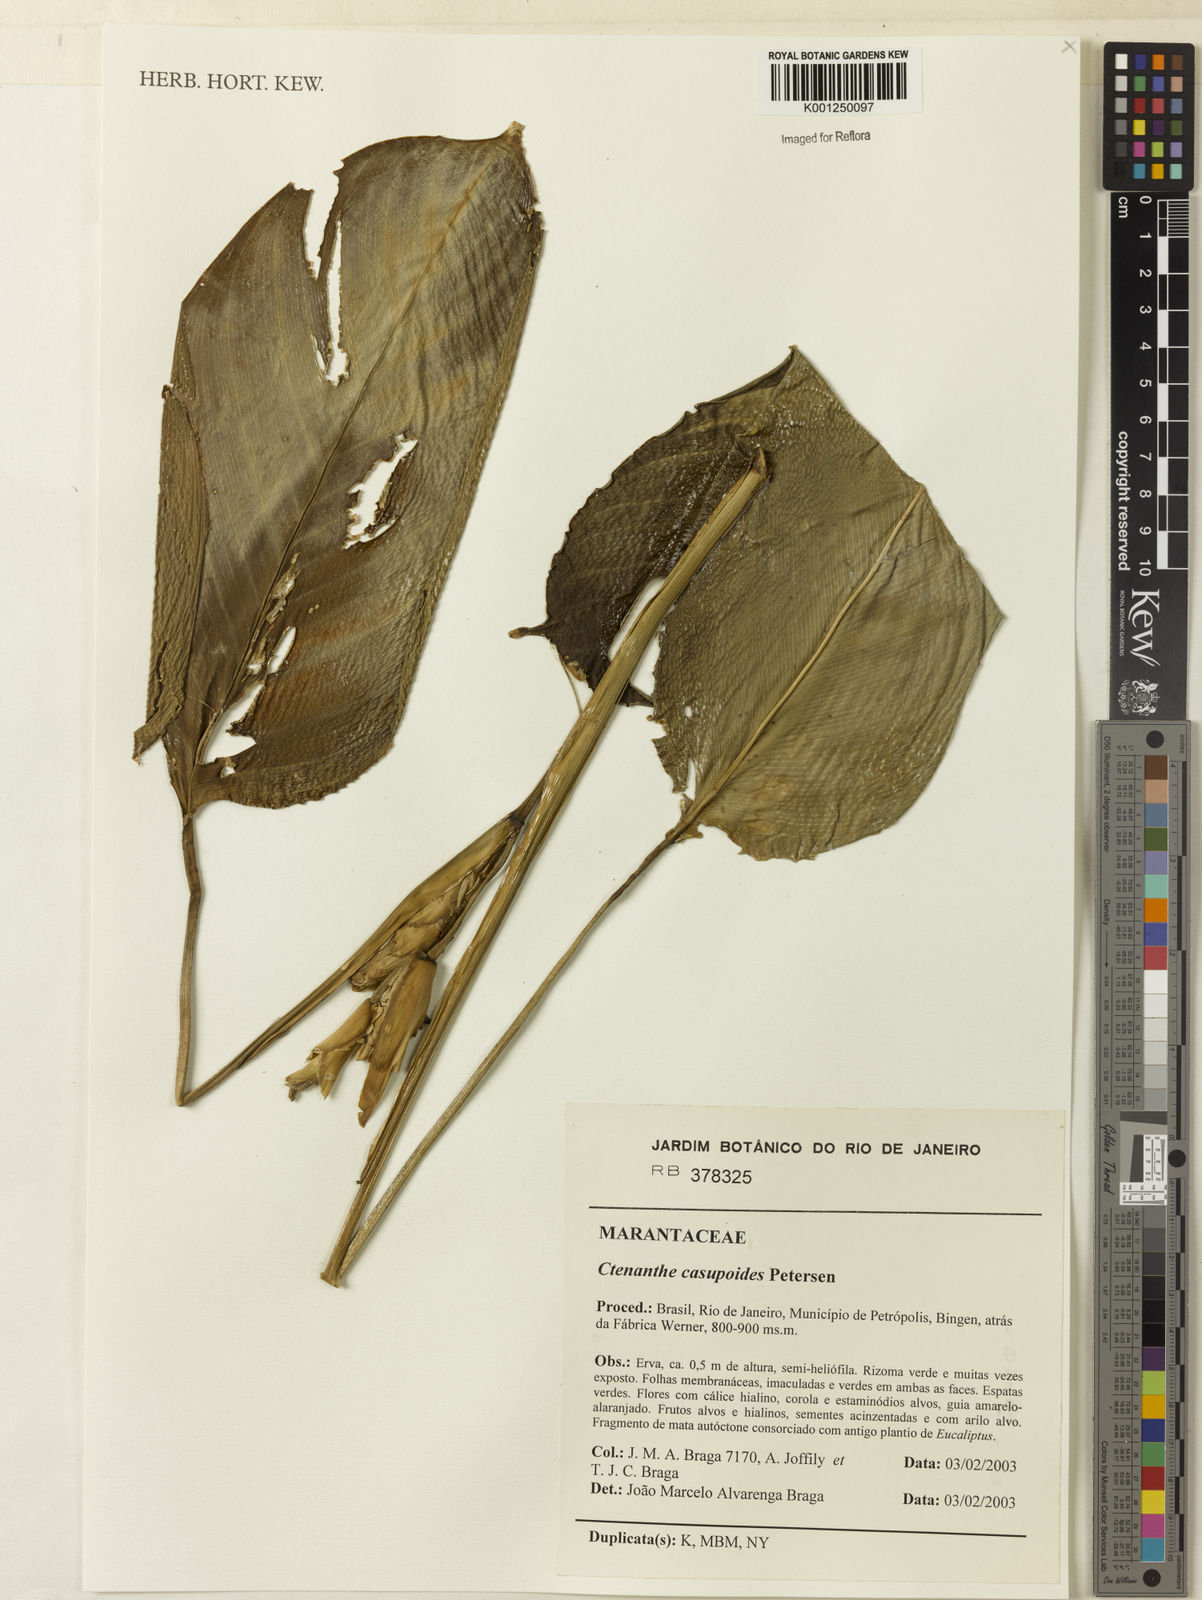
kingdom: Plantae
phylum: Tracheophyta
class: Liliopsida
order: Zingiberales
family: Marantaceae
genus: Ctenanthe
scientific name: Ctenanthe casupoides
